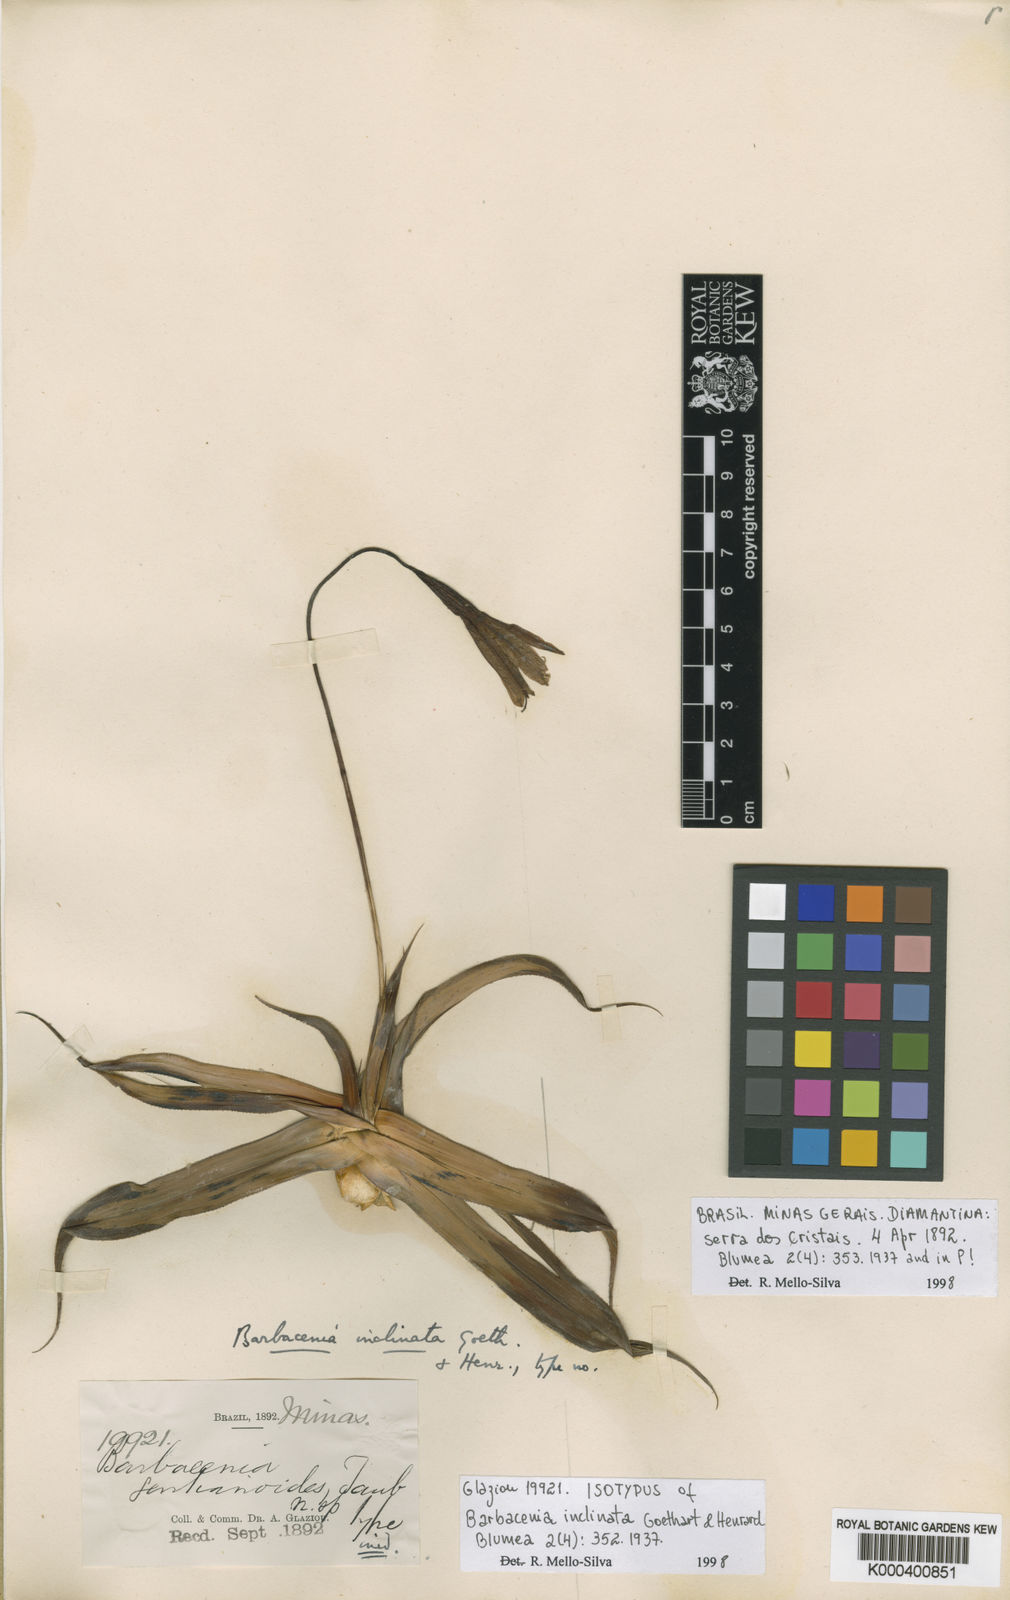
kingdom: Plantae
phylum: Tracheophyta
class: Liliopsida
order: Pandanales
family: Velloziaceae
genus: Barbacenia
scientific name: Barbacenia inclinata
